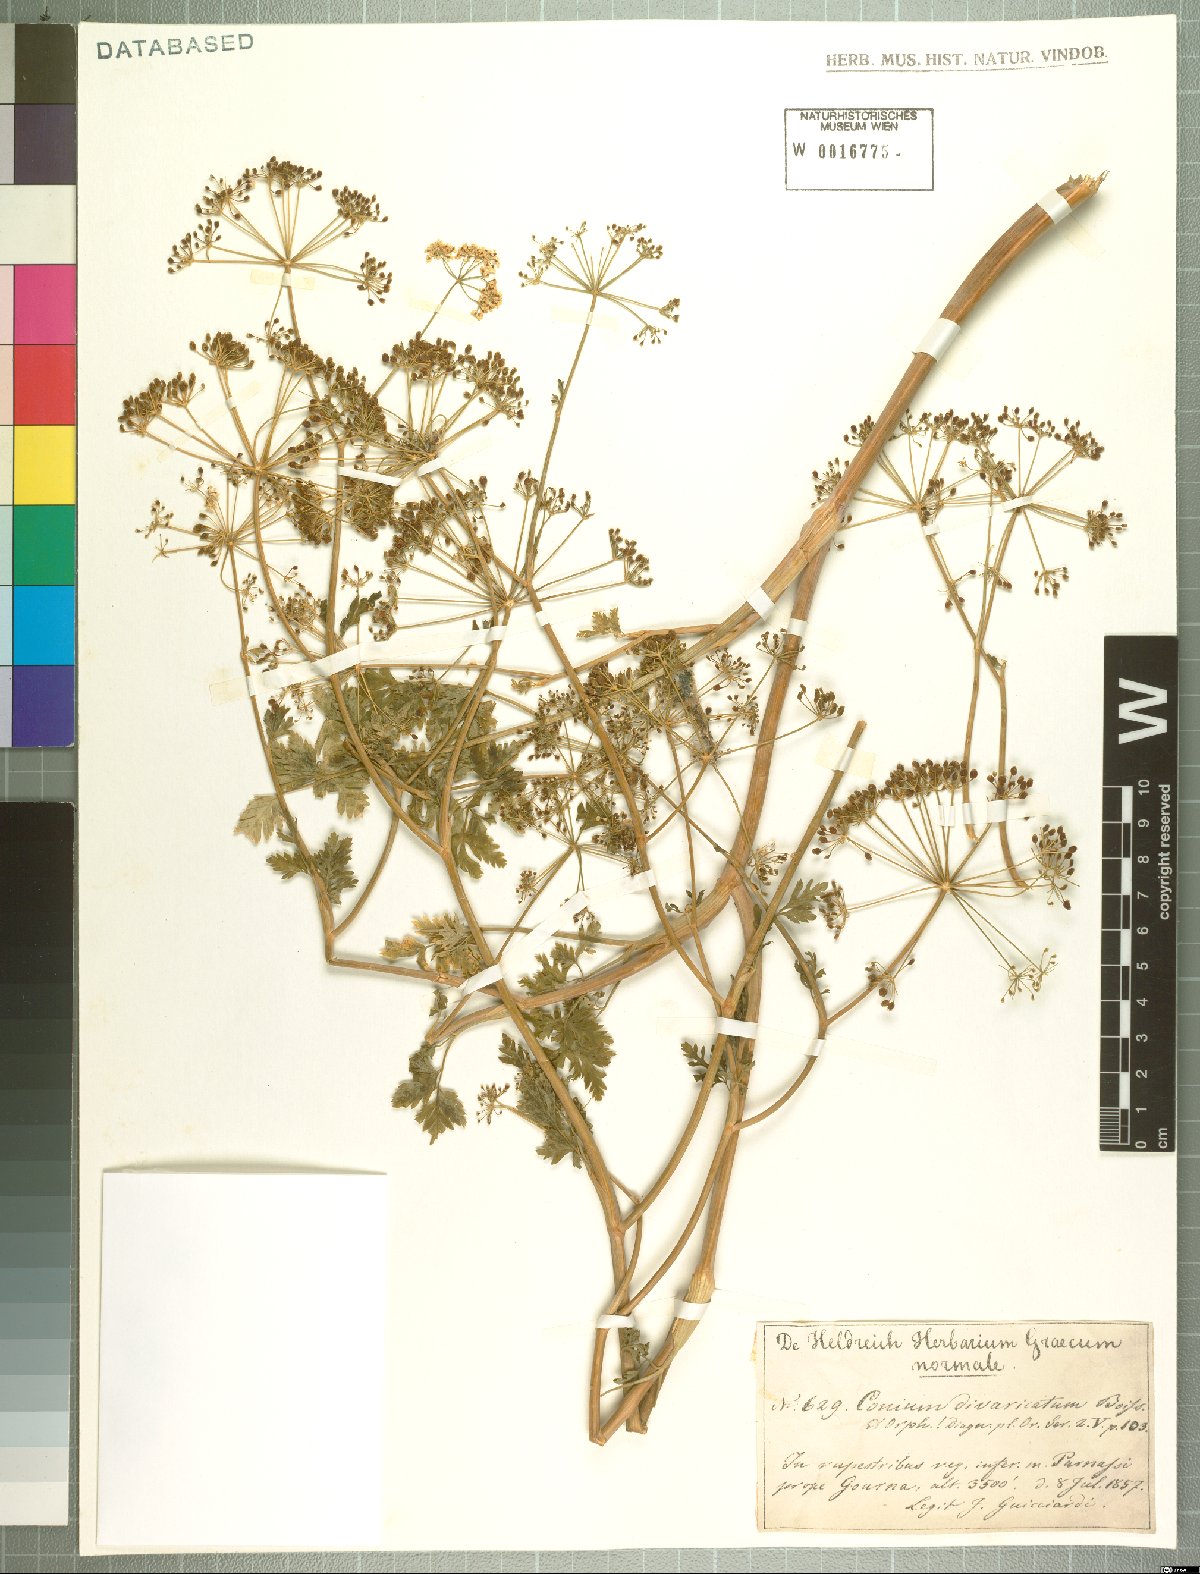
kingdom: Plantae
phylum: Tracheophyta
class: Magnoliopsida
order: Apiales
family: Apiaceae
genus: Conium
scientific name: Conium divaricatum
